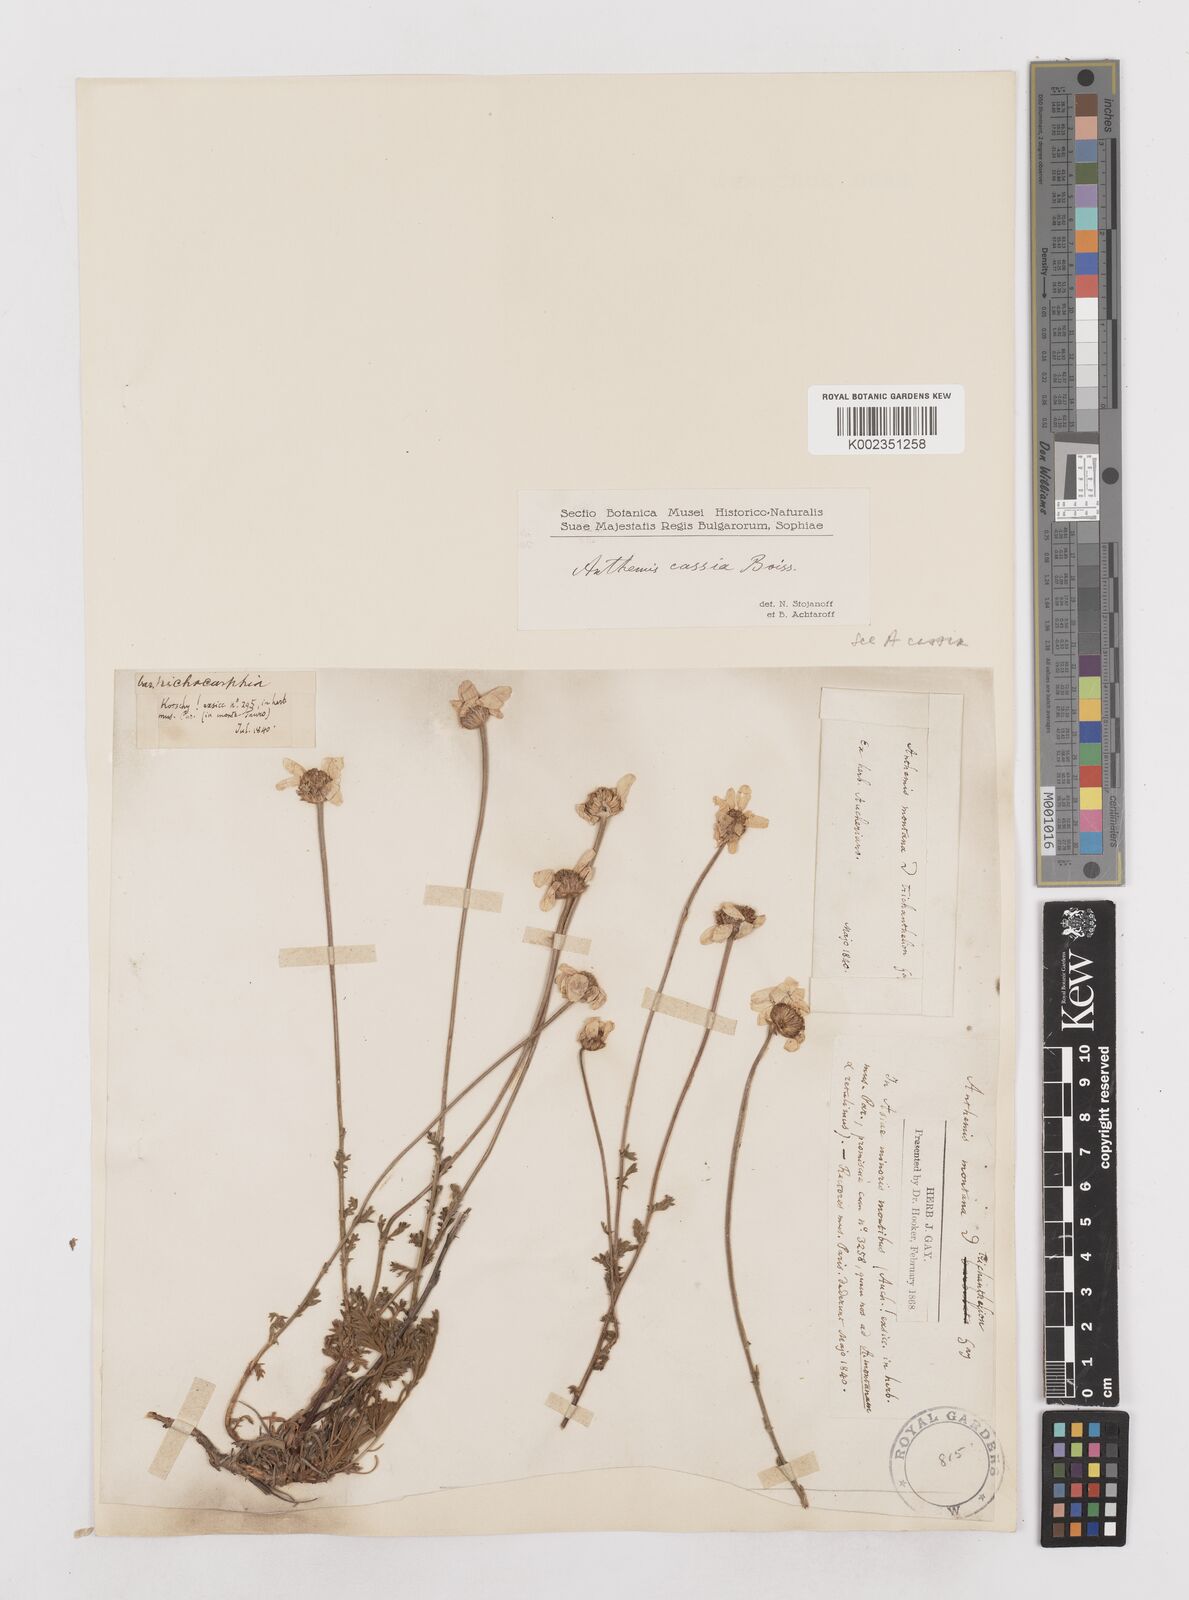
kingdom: Plantae
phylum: Tracheophyta
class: Magnoliopsida
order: Asterales
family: Asteraceae
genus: Anthemis
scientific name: Anthemis cretica
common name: Mountain dog-daisy
